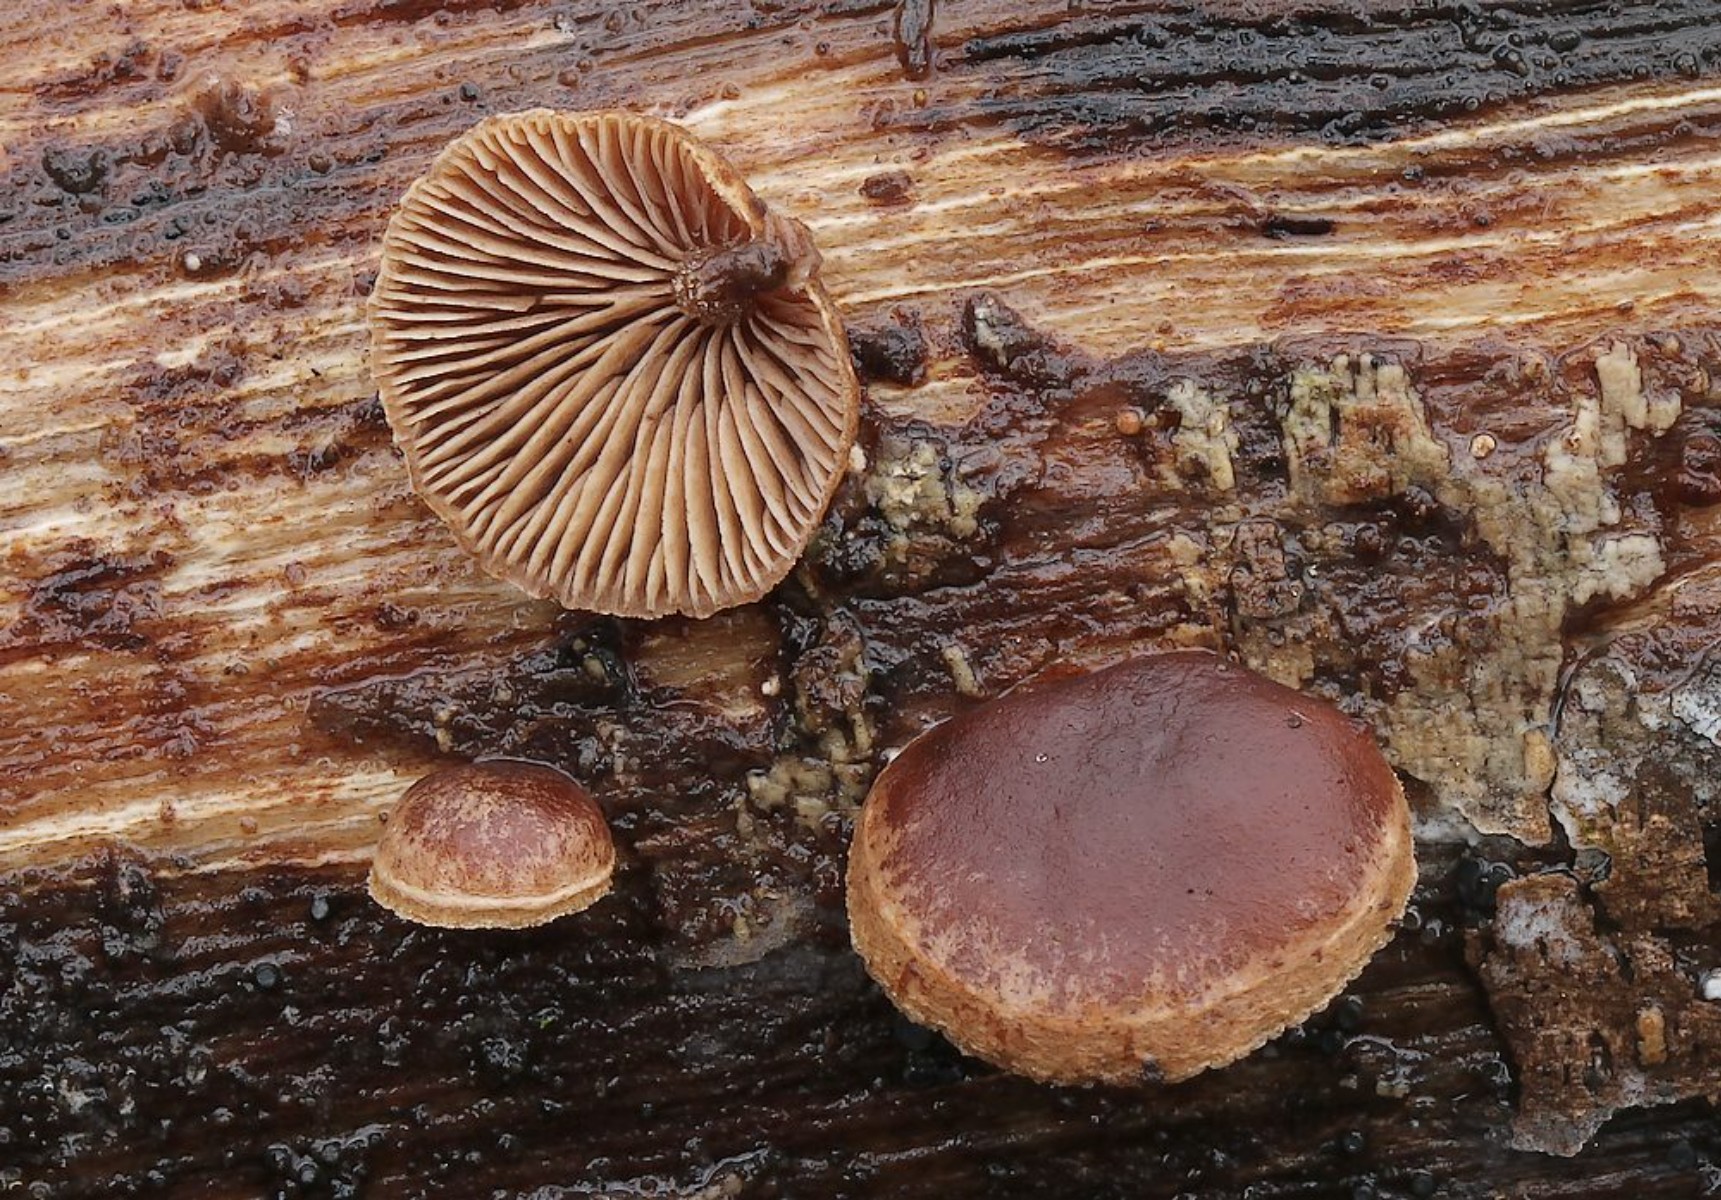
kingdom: Fungi
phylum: Basidiomycota
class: Agaricomycetes
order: Agaricales
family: Strophariaceae
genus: Deconica
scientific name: Deconica horizontalis
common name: ved-stråhat
